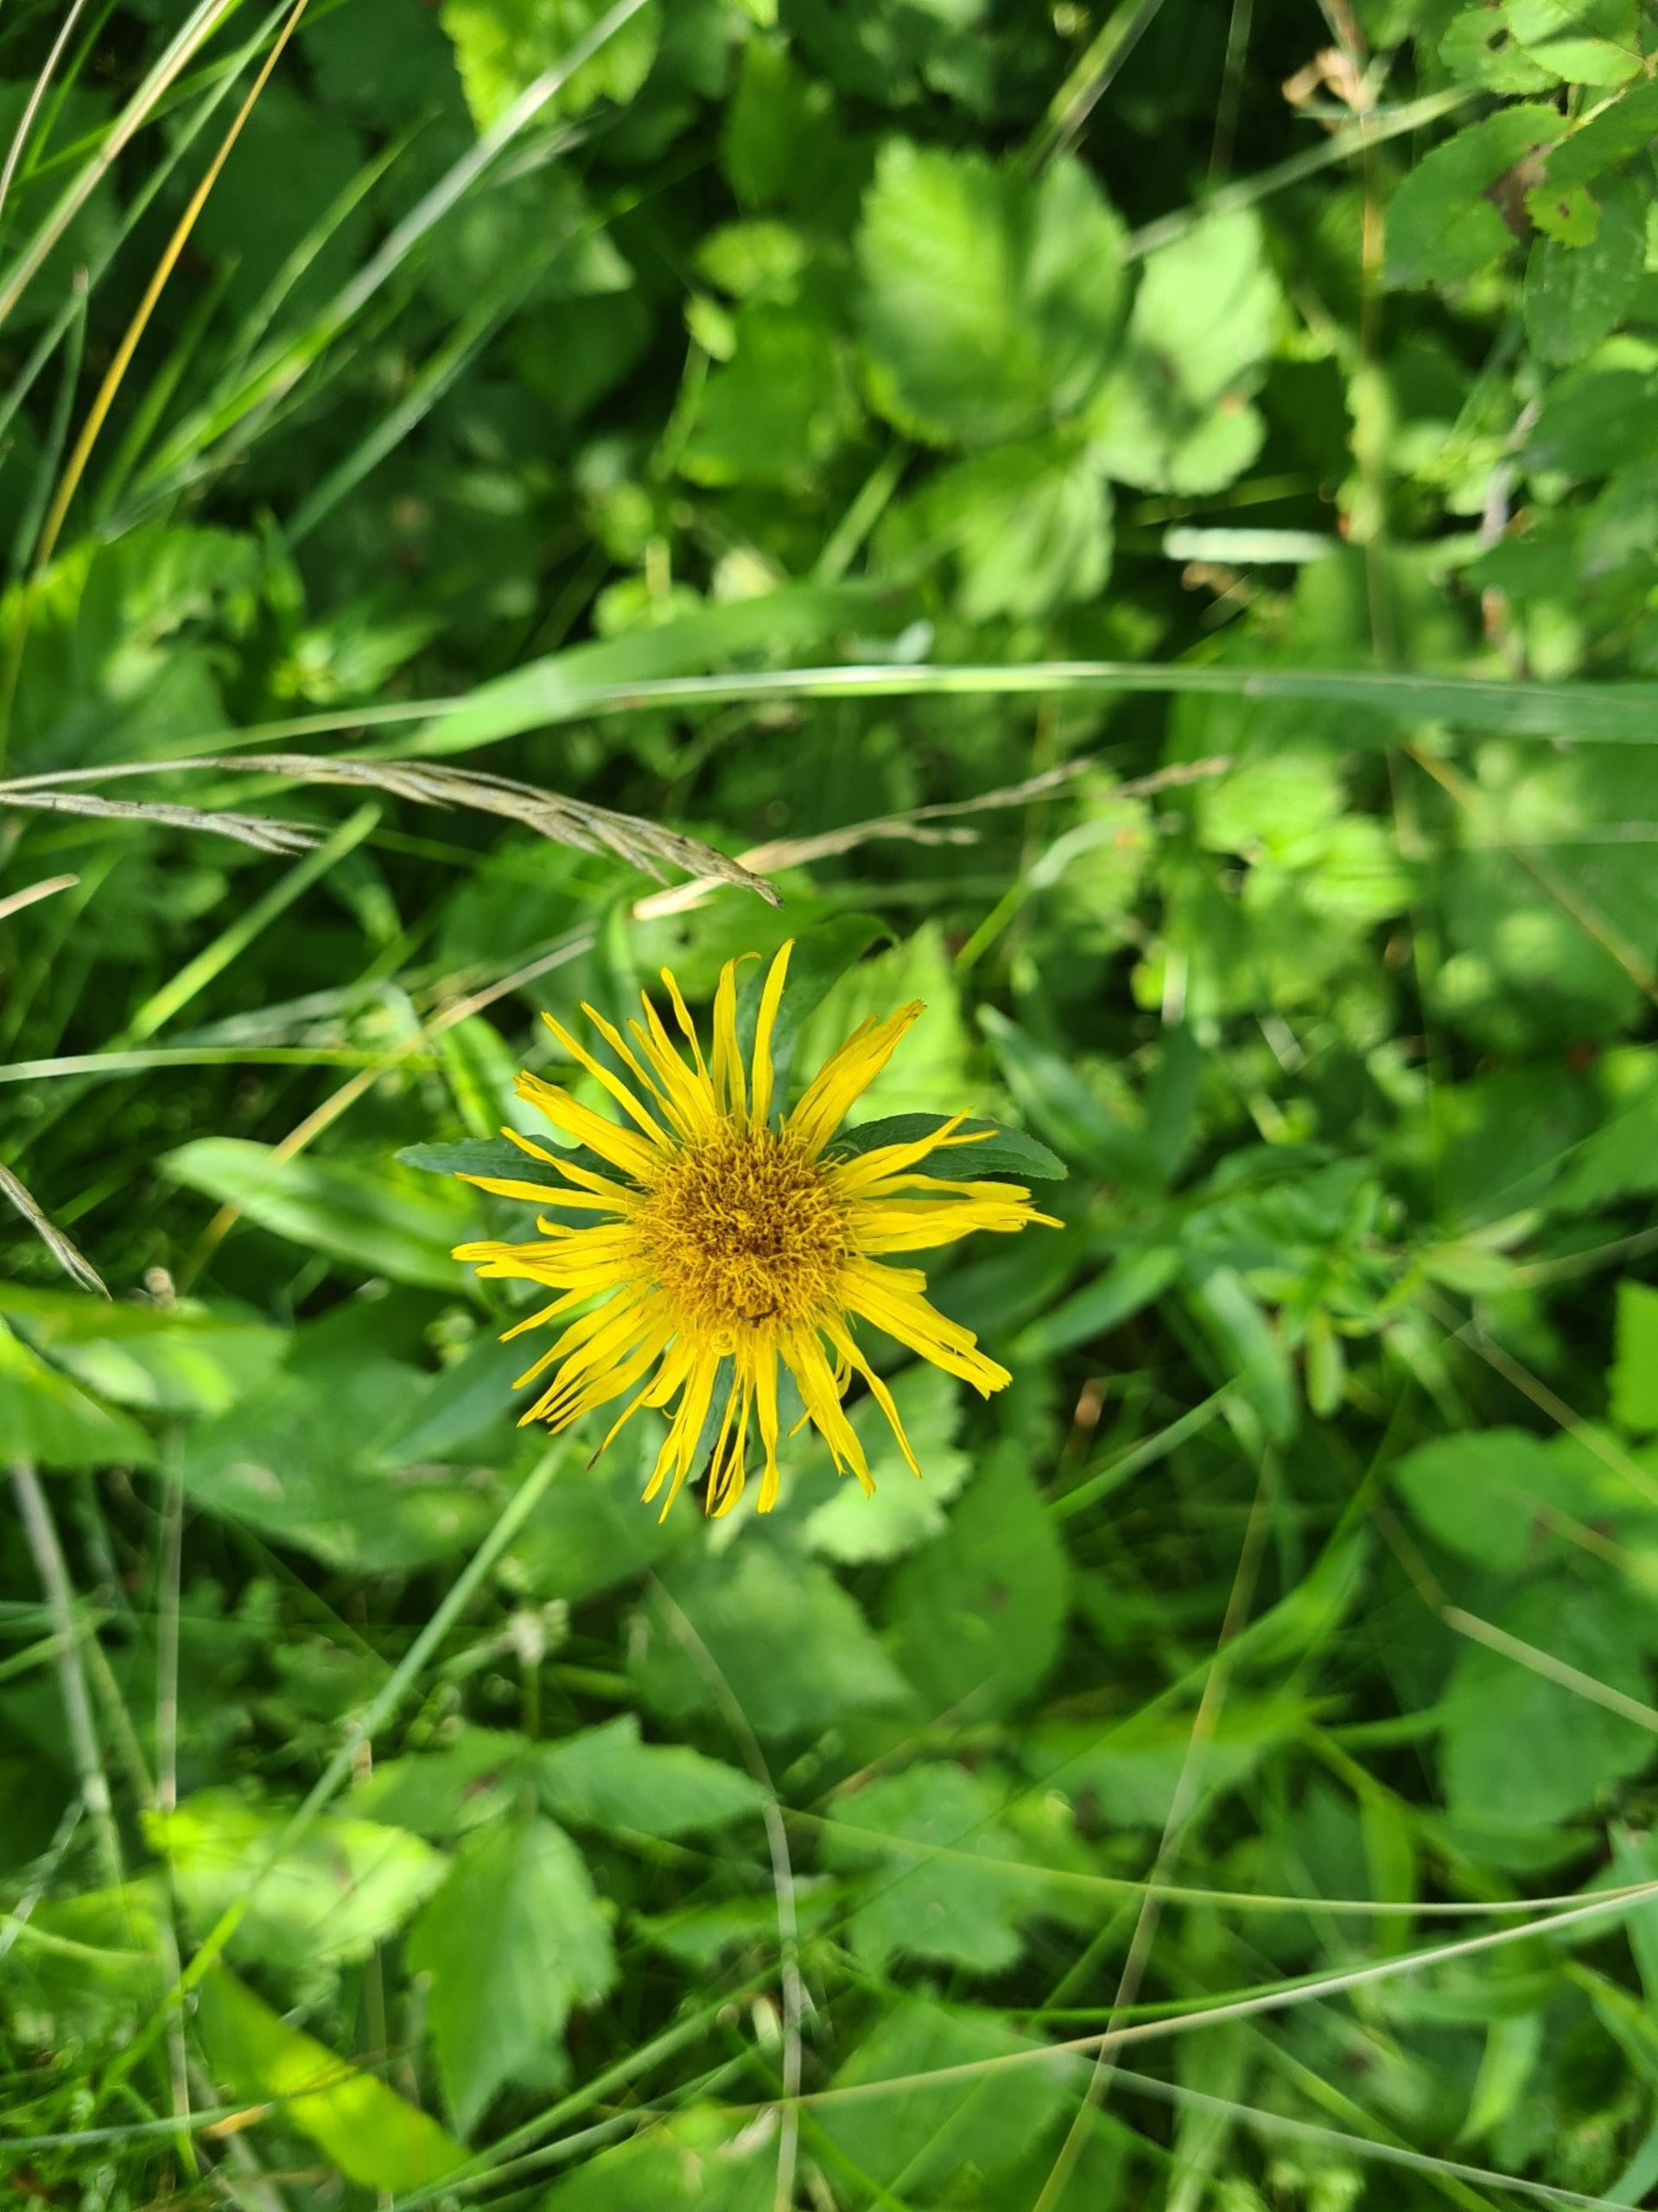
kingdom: Plantae
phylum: Tracheophyta
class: Magnoliopsida
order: Asterales
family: Asteraceae
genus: Pentanema
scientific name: Pentanema salicinum
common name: Pile-alant
